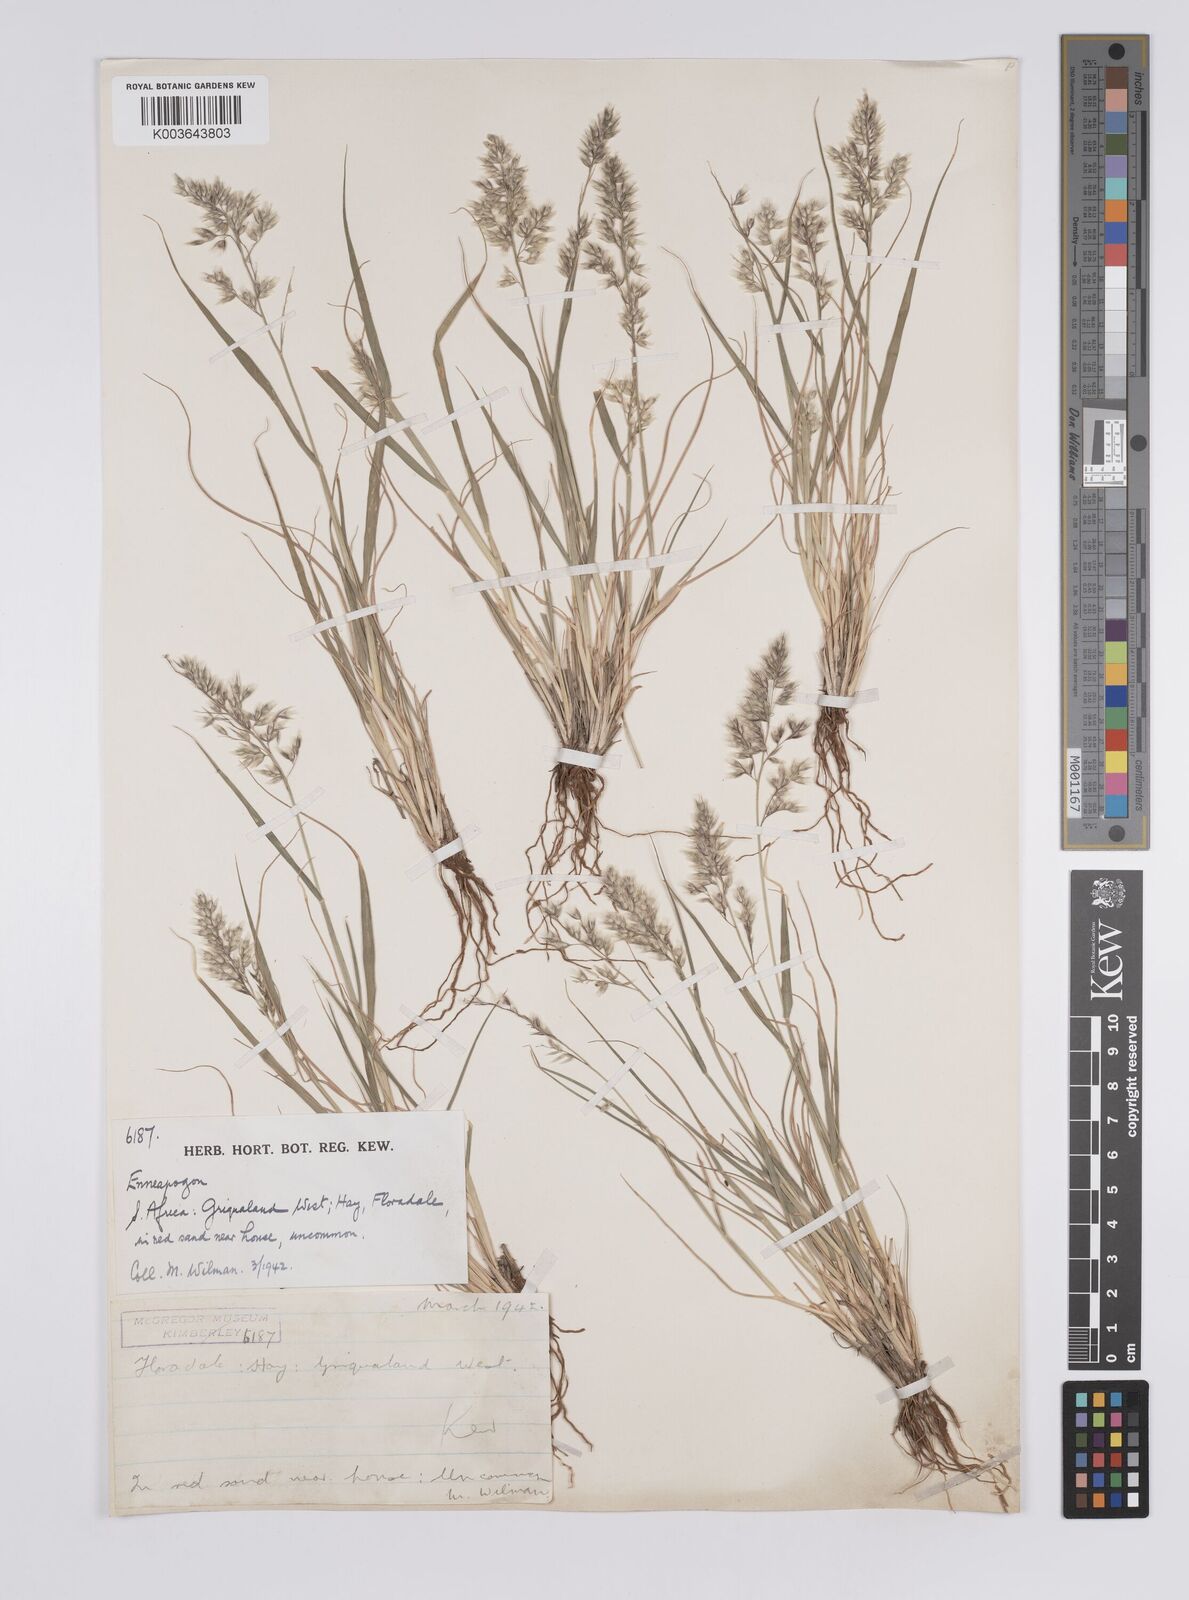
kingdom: Plantae
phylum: Tracheophyta
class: Liliopsida
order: Poales
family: Poaceae
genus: Enneapogon
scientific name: Enneapogon scaber
